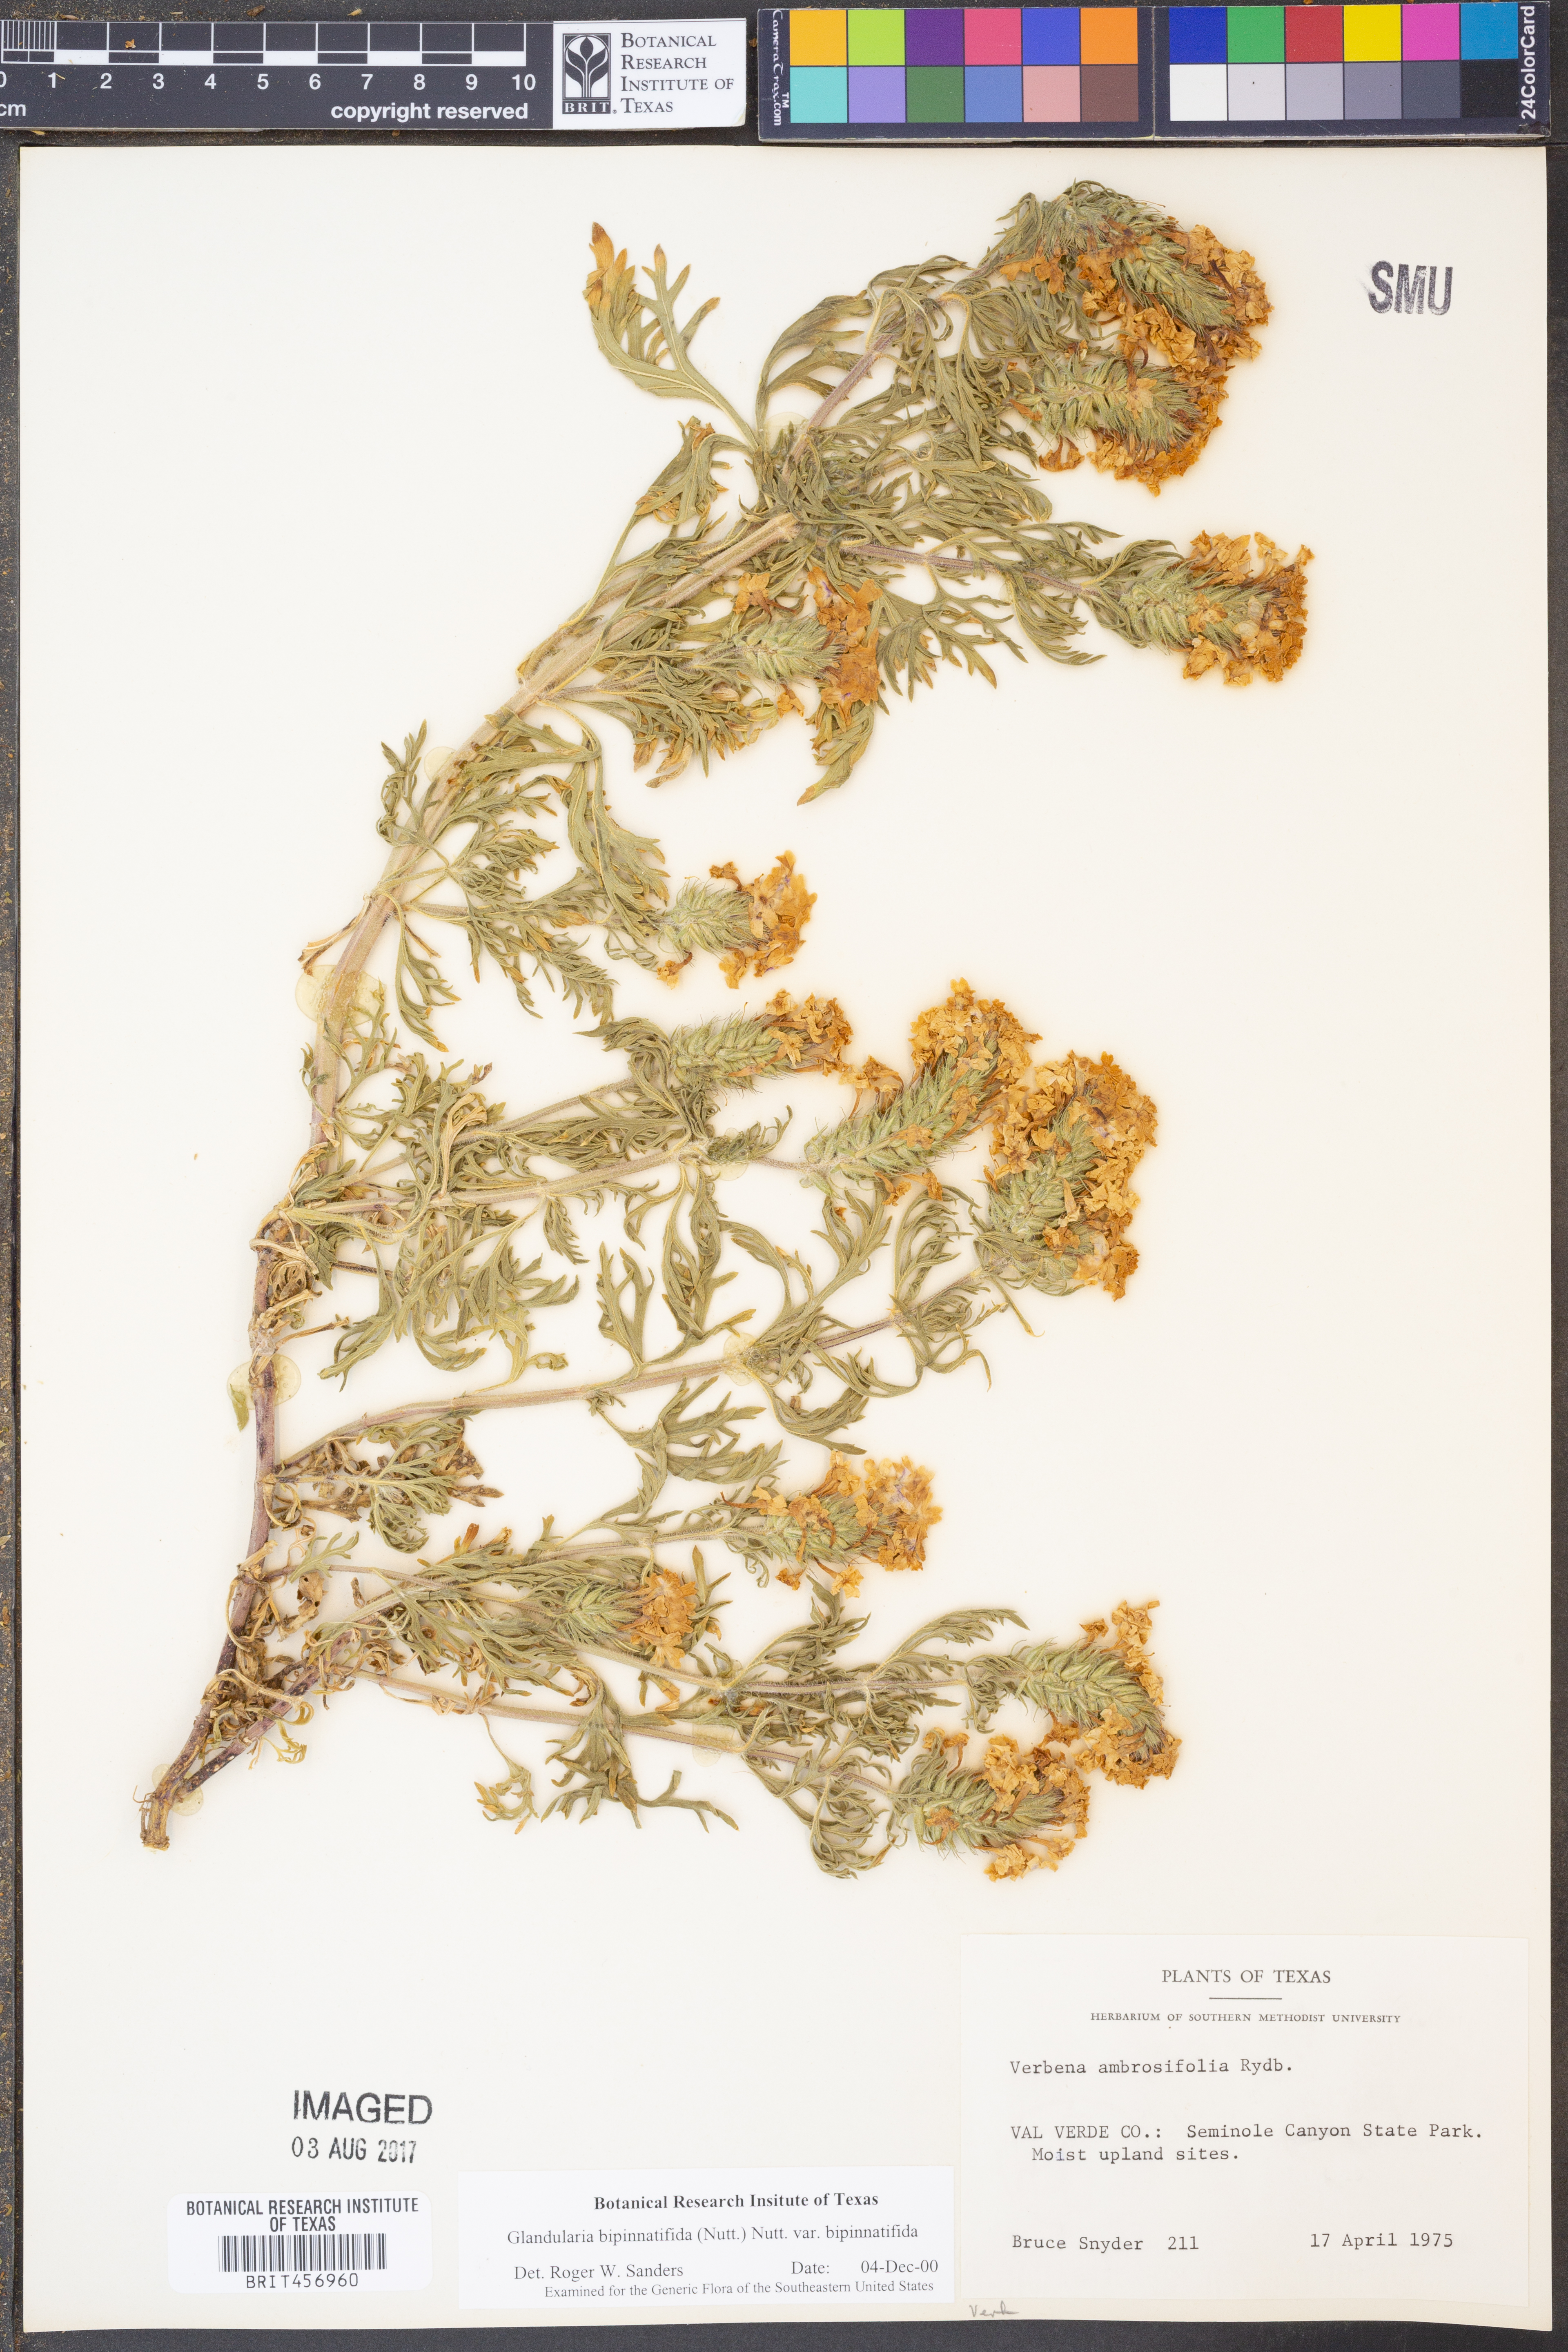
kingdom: Plantae
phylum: Tracheophyta
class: Magnoliopsida
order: Lamiales
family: Verbenaceae
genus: Verbena
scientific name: Verbena bipinnatifida
